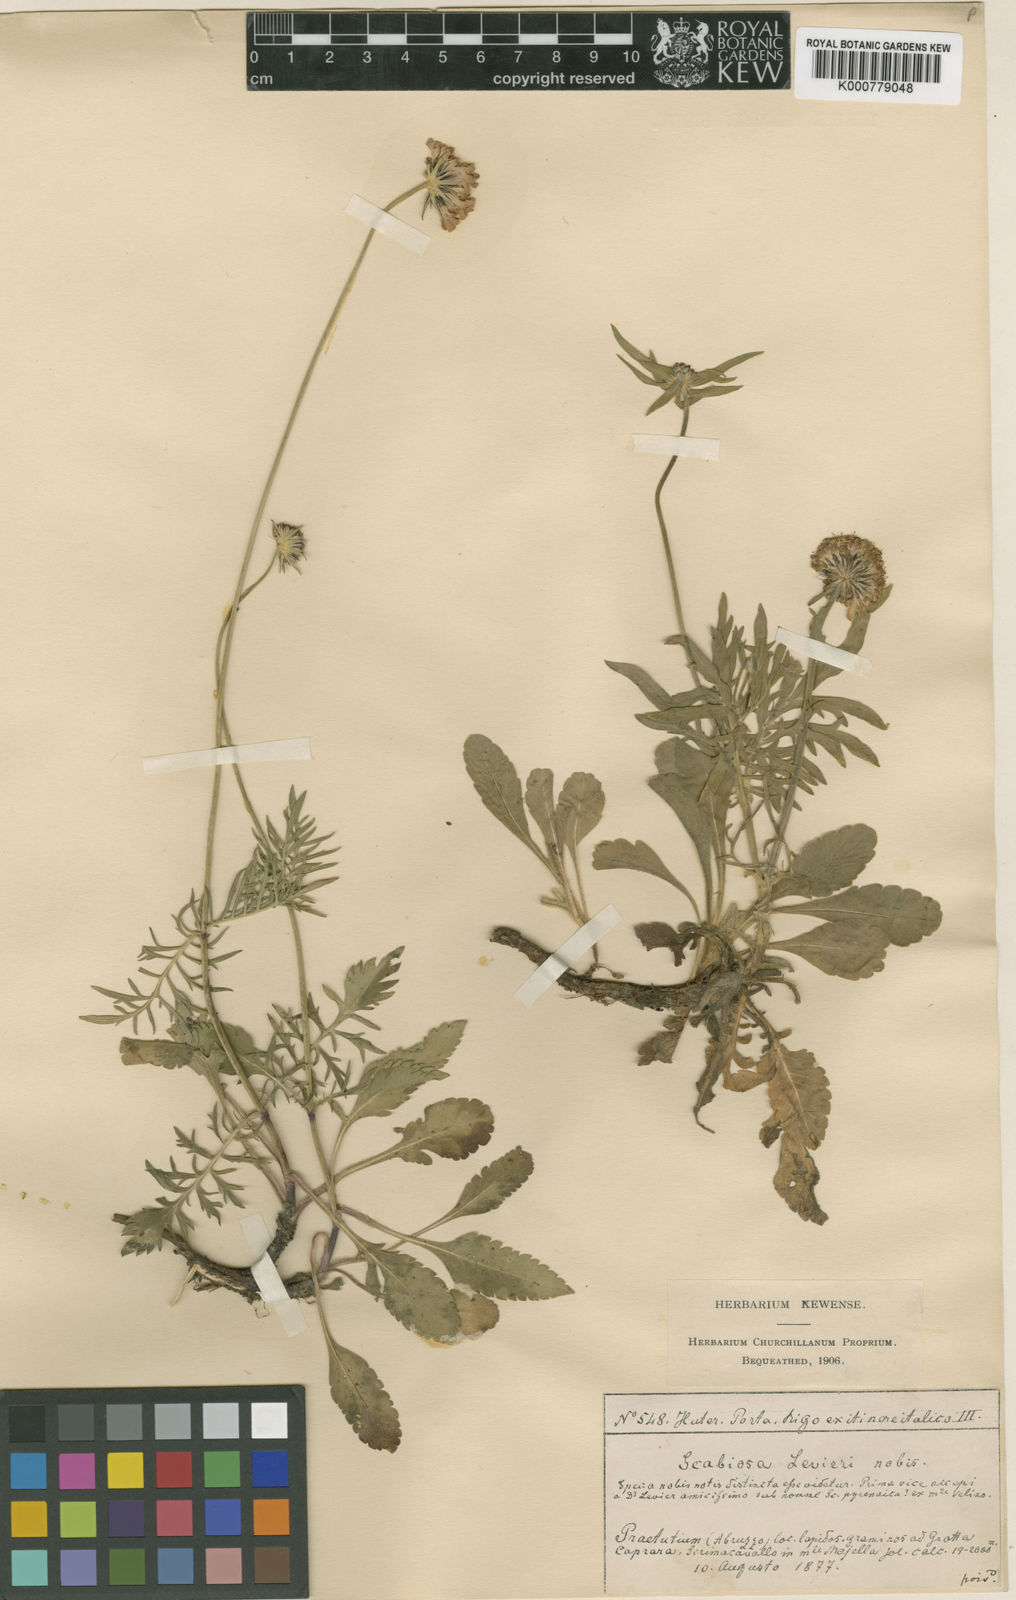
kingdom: Plantae
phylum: Tracheophyta
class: Magnoliopsida
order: Dipsacales
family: Caprifoliaceae
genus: Scabiosa
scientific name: Scabiosa columbaria
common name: Small scabious
